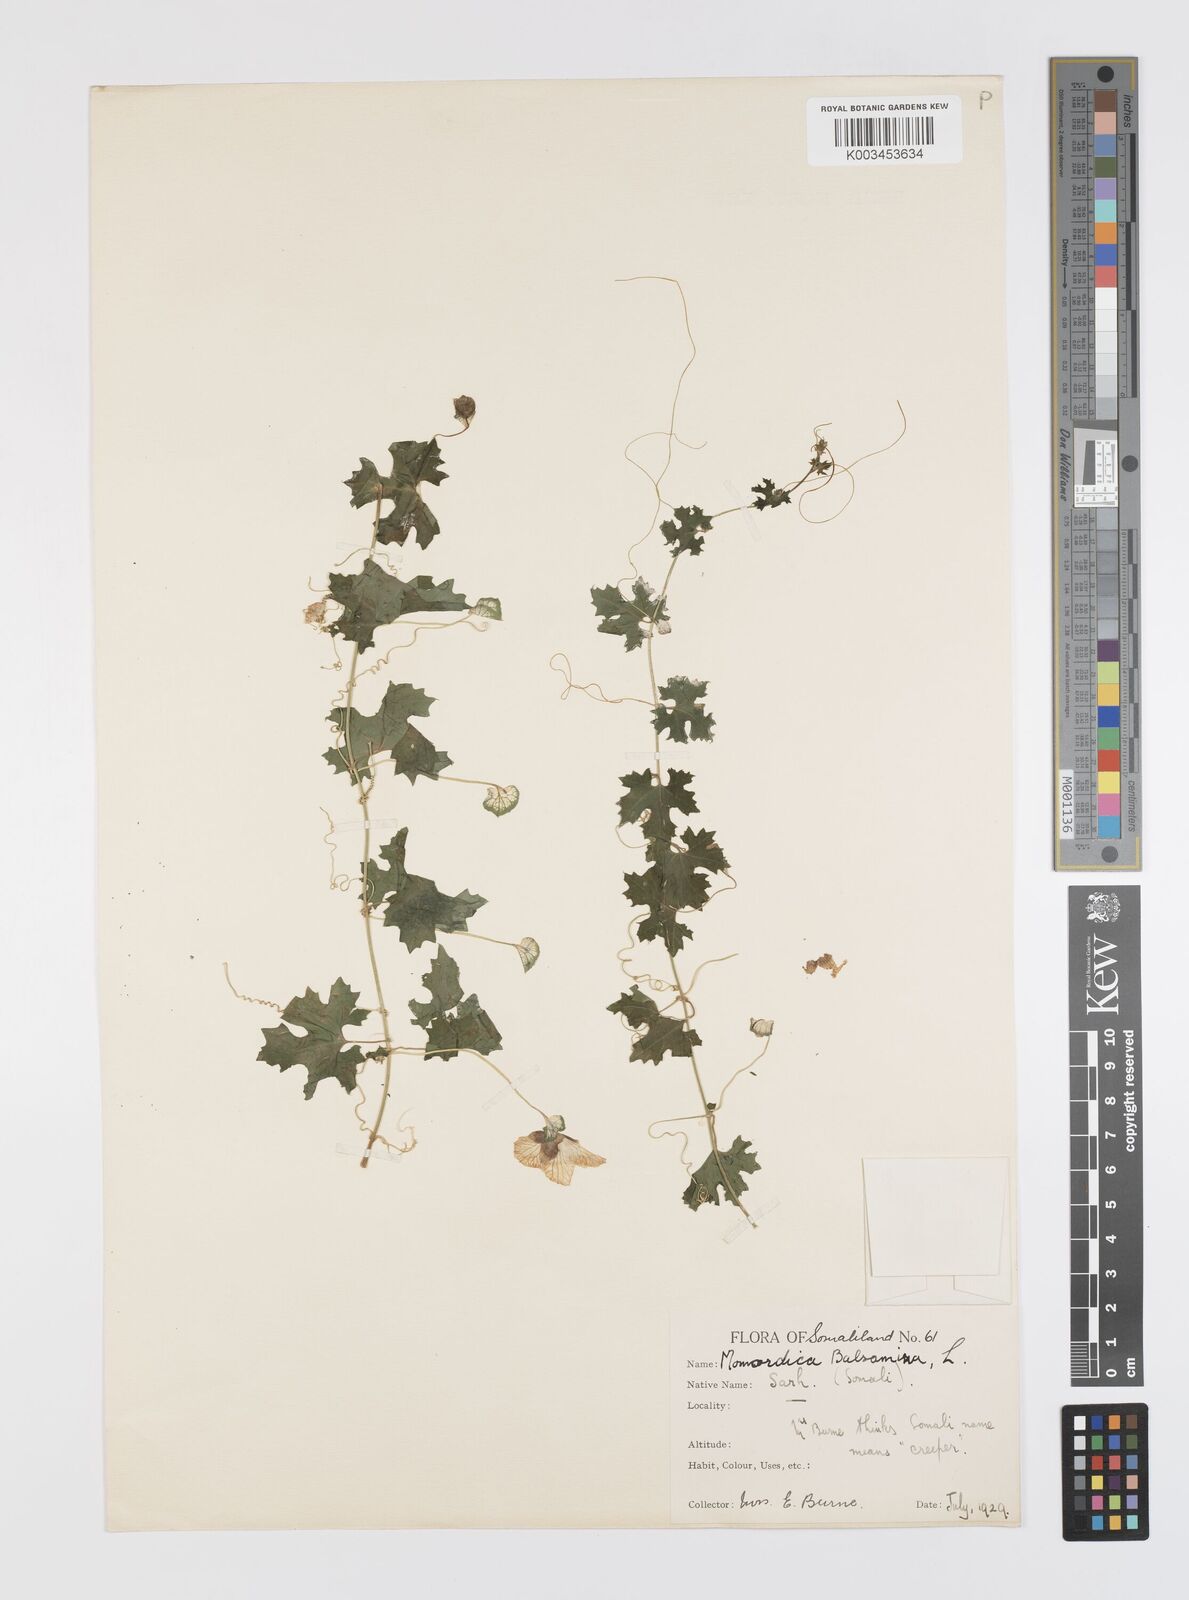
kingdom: Plantae
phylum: Tracheophyta
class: Magnoliopsida
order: Cucurbitales
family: Cucurbitaceae
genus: Momordica
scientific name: Momordica balsamina
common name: Southern balsampear
